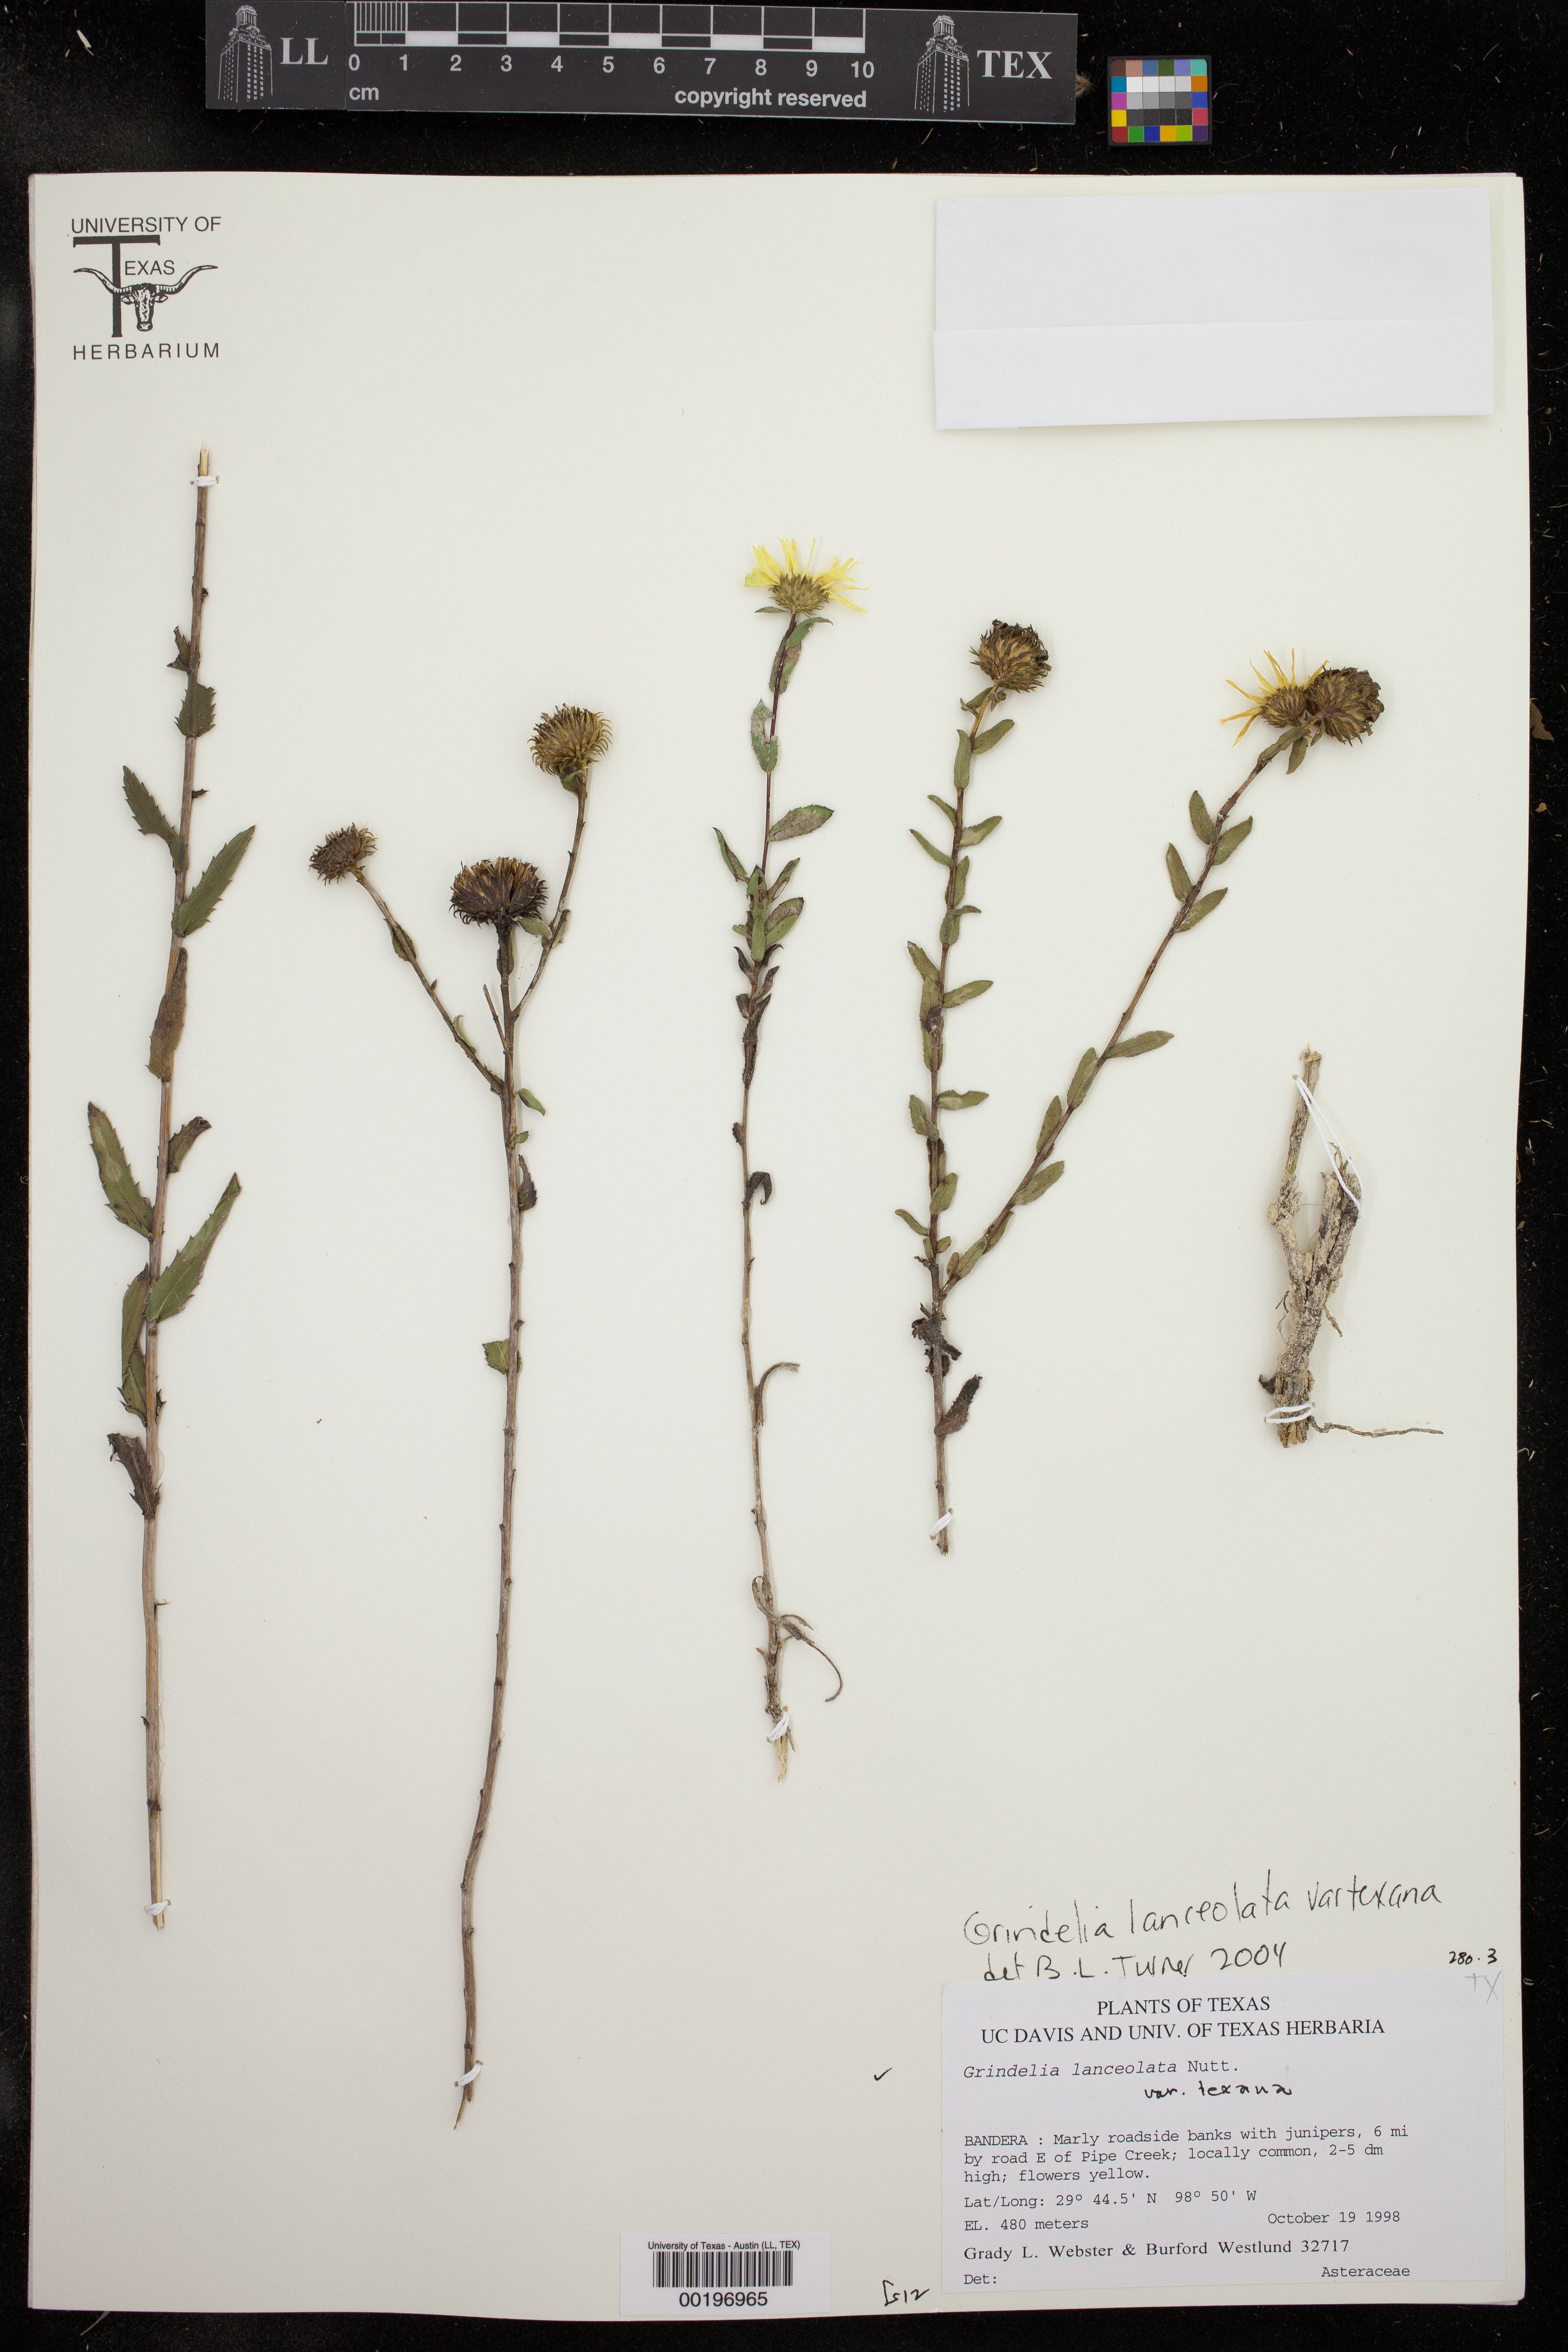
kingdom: Plantae
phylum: Tracheophyta
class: Magnoliopsida
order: Asterales
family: Asteraceae
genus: Grindelia
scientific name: Grindelia texana
